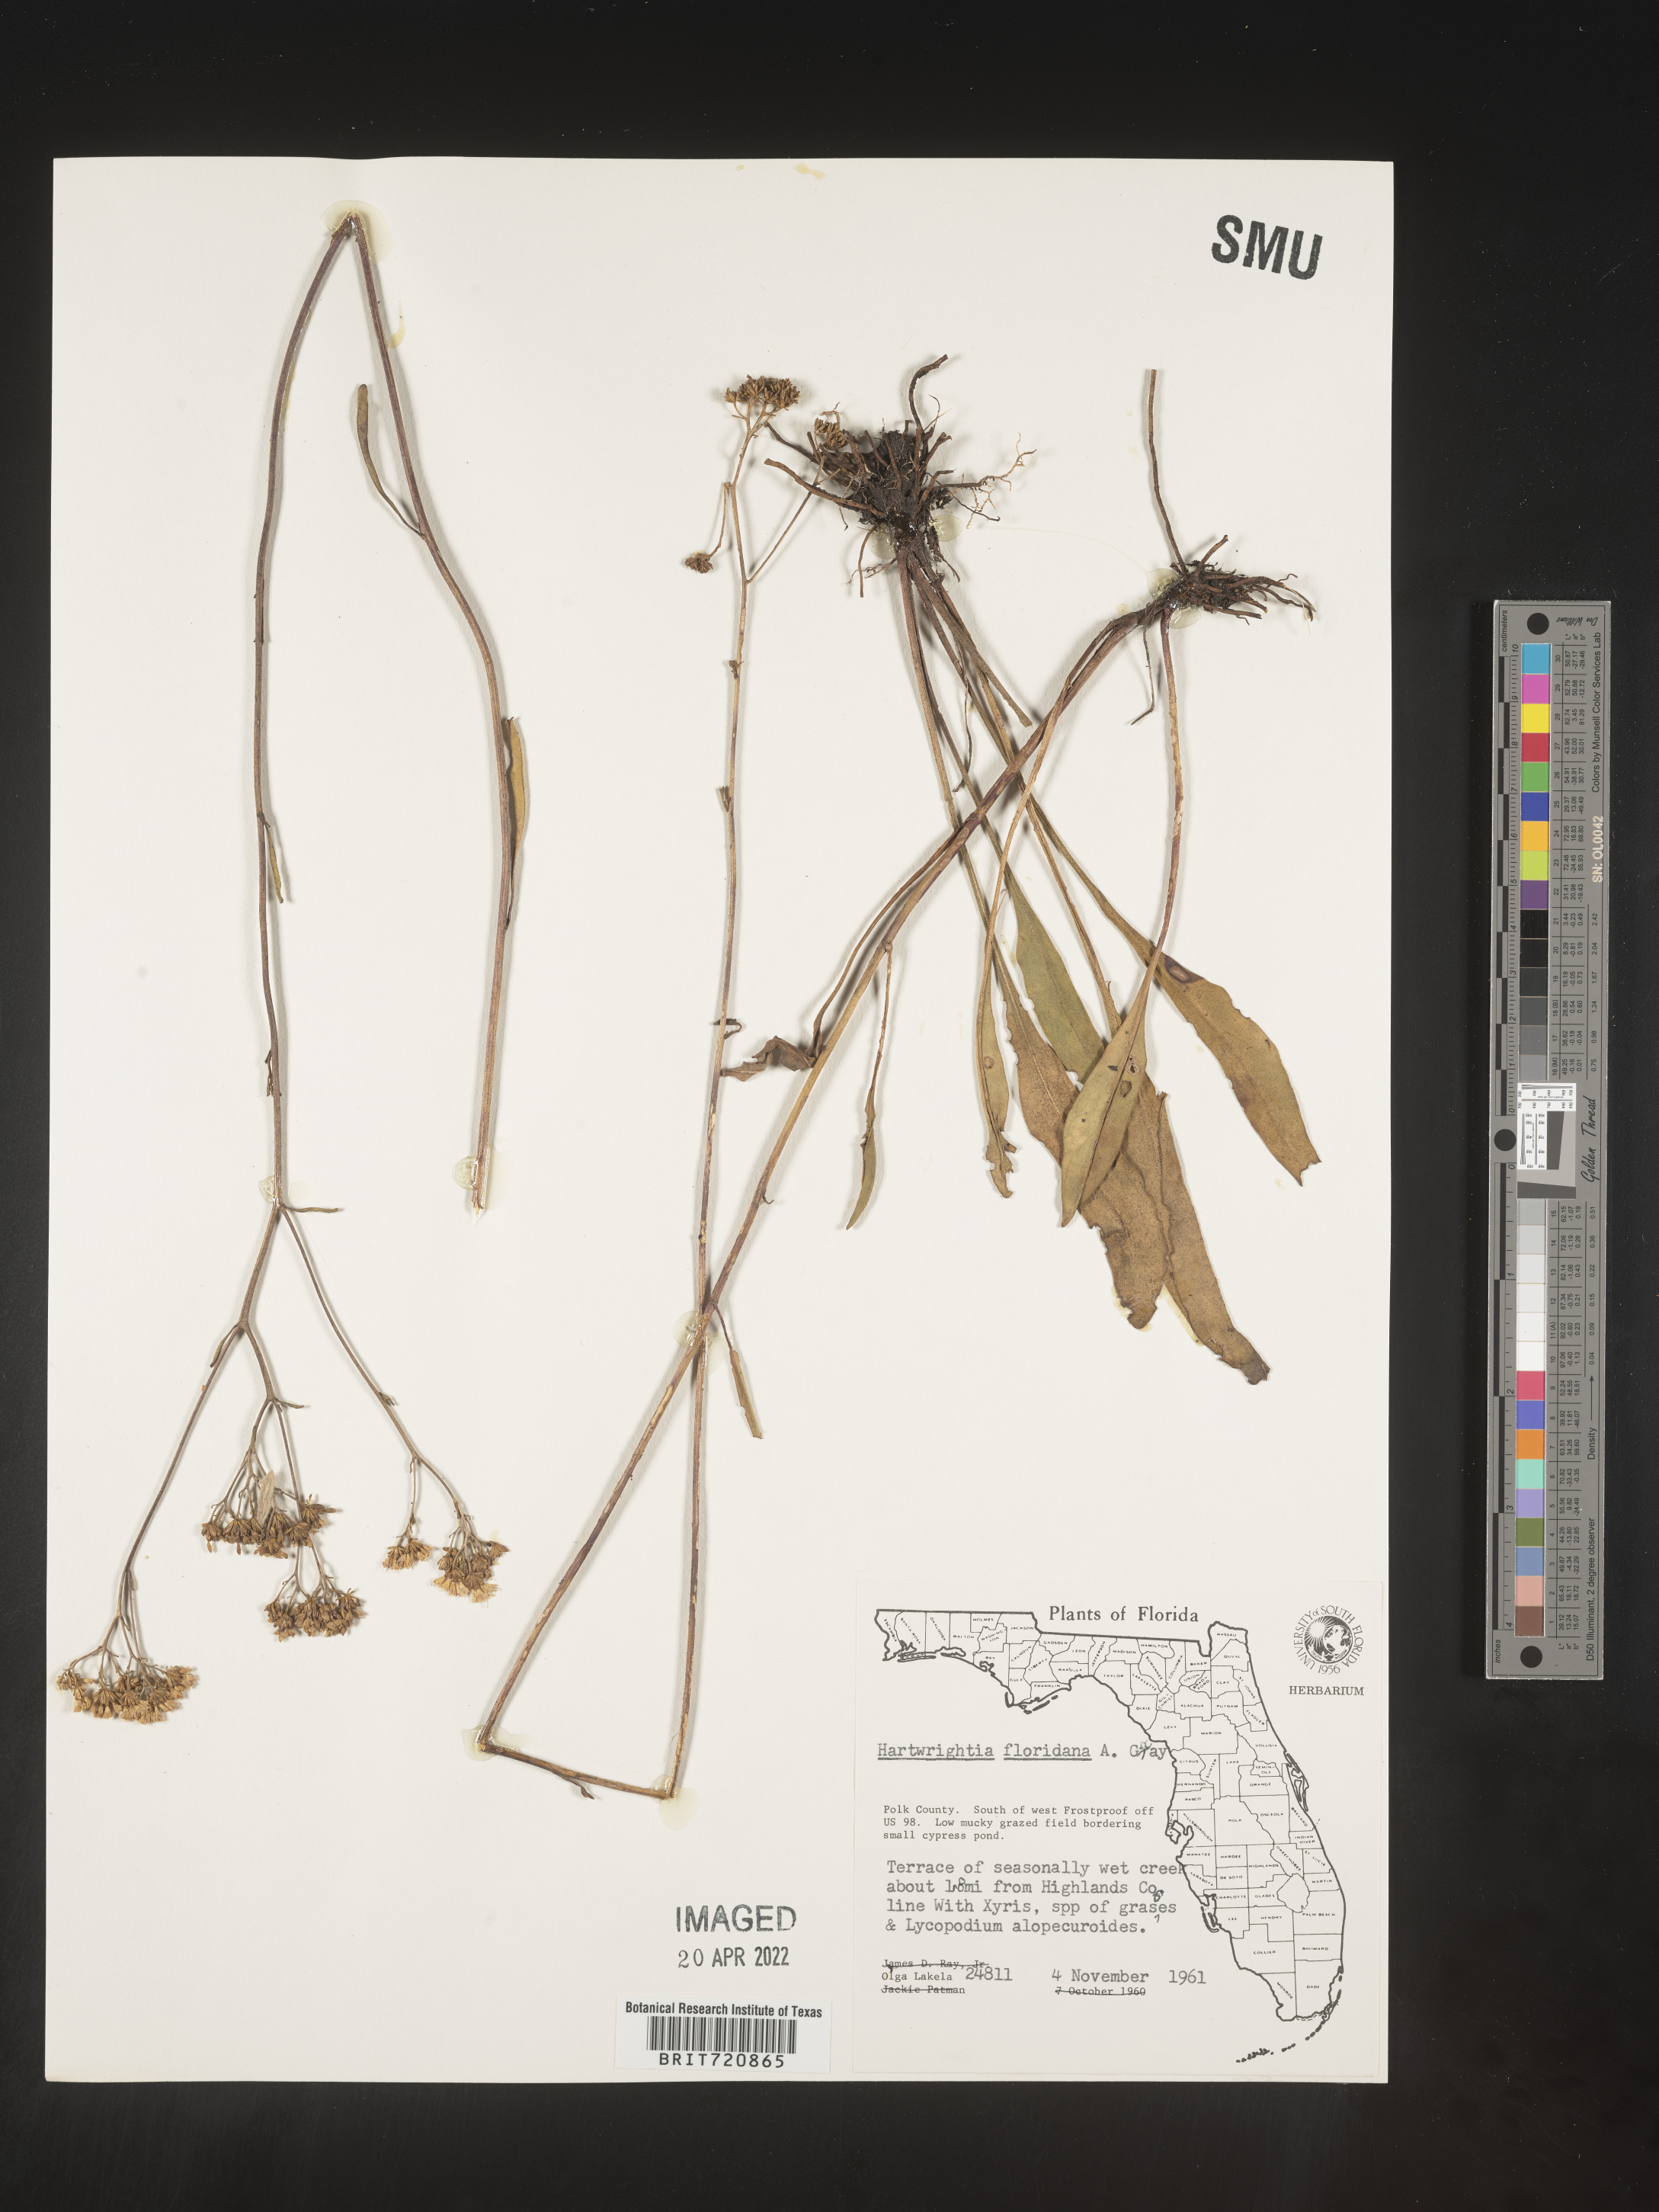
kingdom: Plantae
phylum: Tracheophyta
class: Magnoliopsida
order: Asterales
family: Asteraceae
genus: Hartwrightia
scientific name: Hartwrightia
